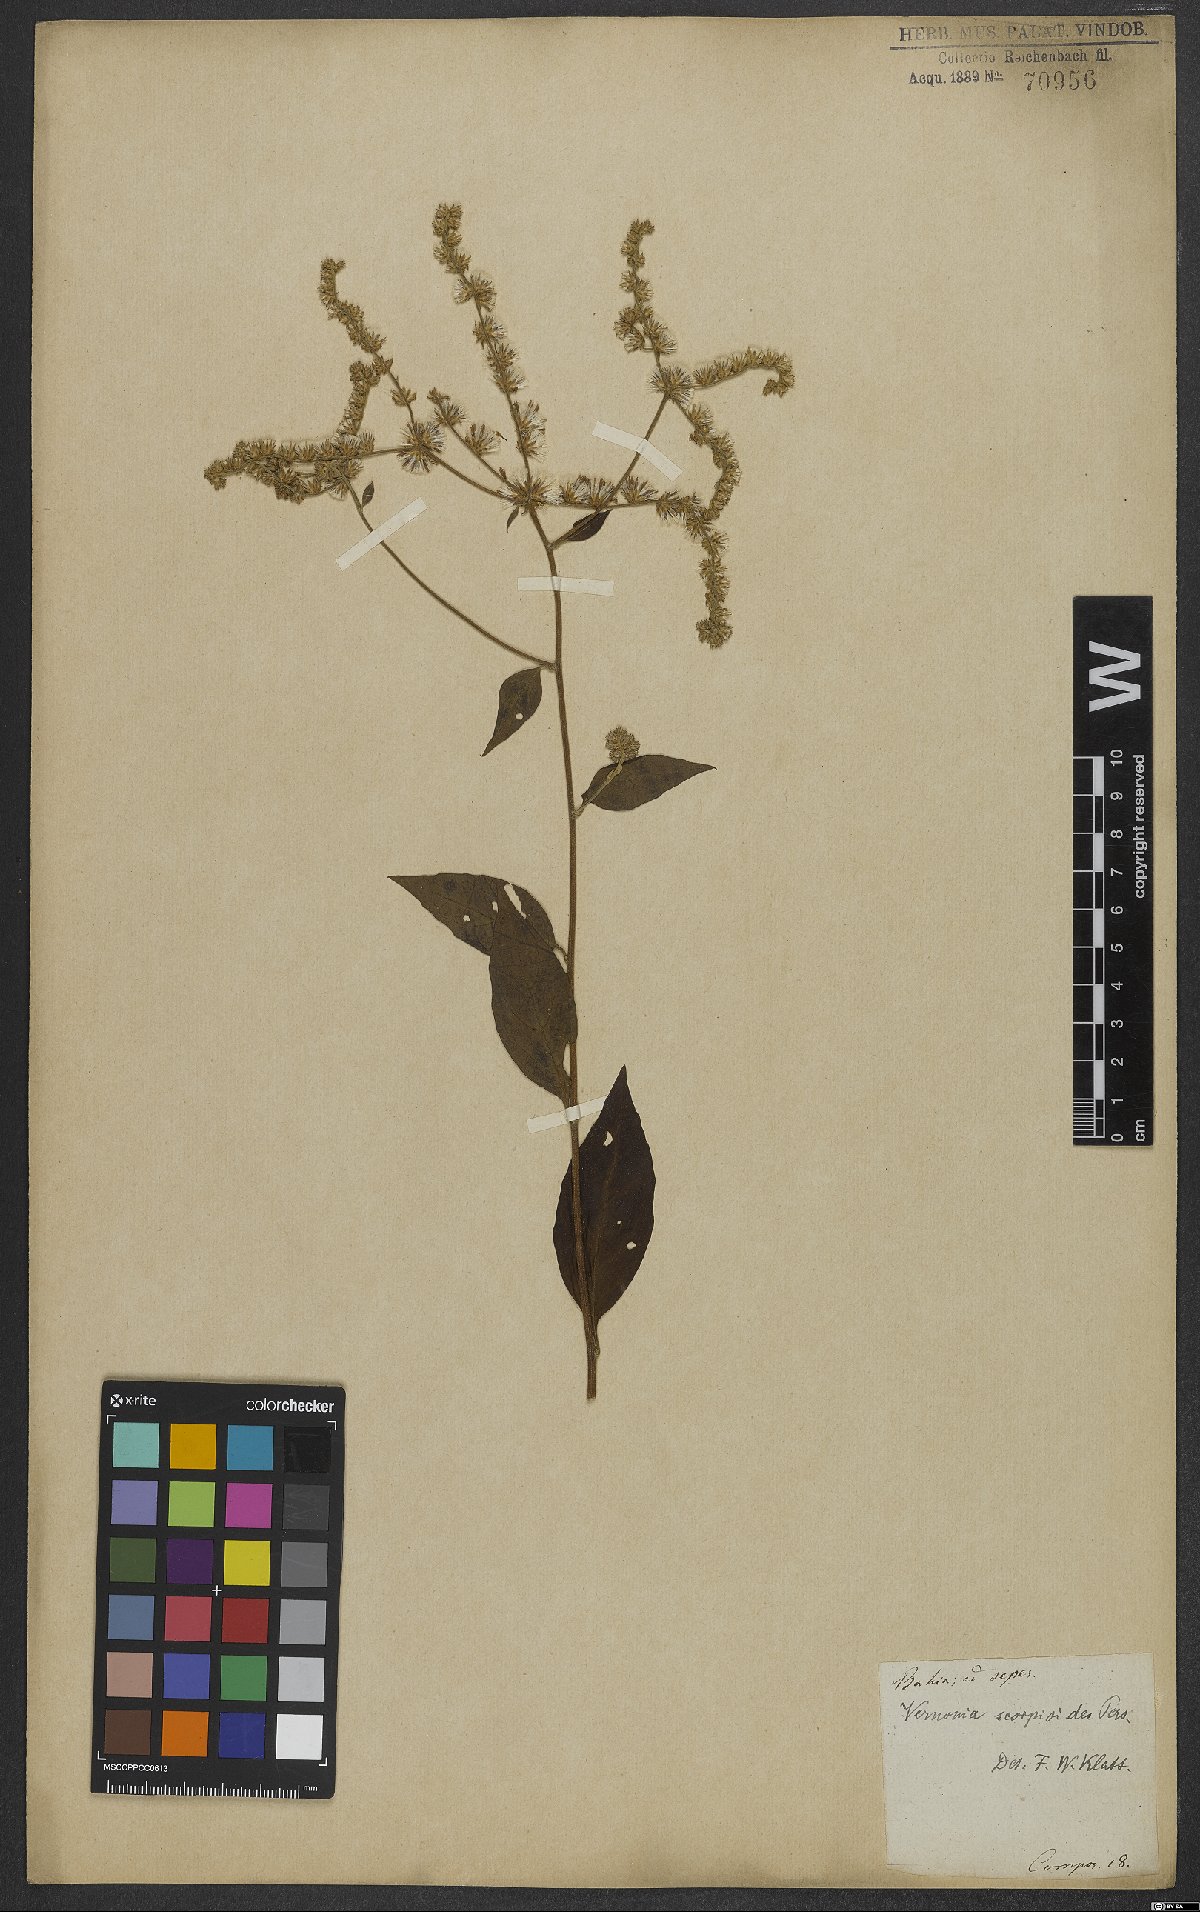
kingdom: Plantae
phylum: Tracheophyta
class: Magnoliopsida
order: Asterales
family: Asteraceae
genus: Cyrtocymura
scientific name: Cyrtocymura scorpioides
